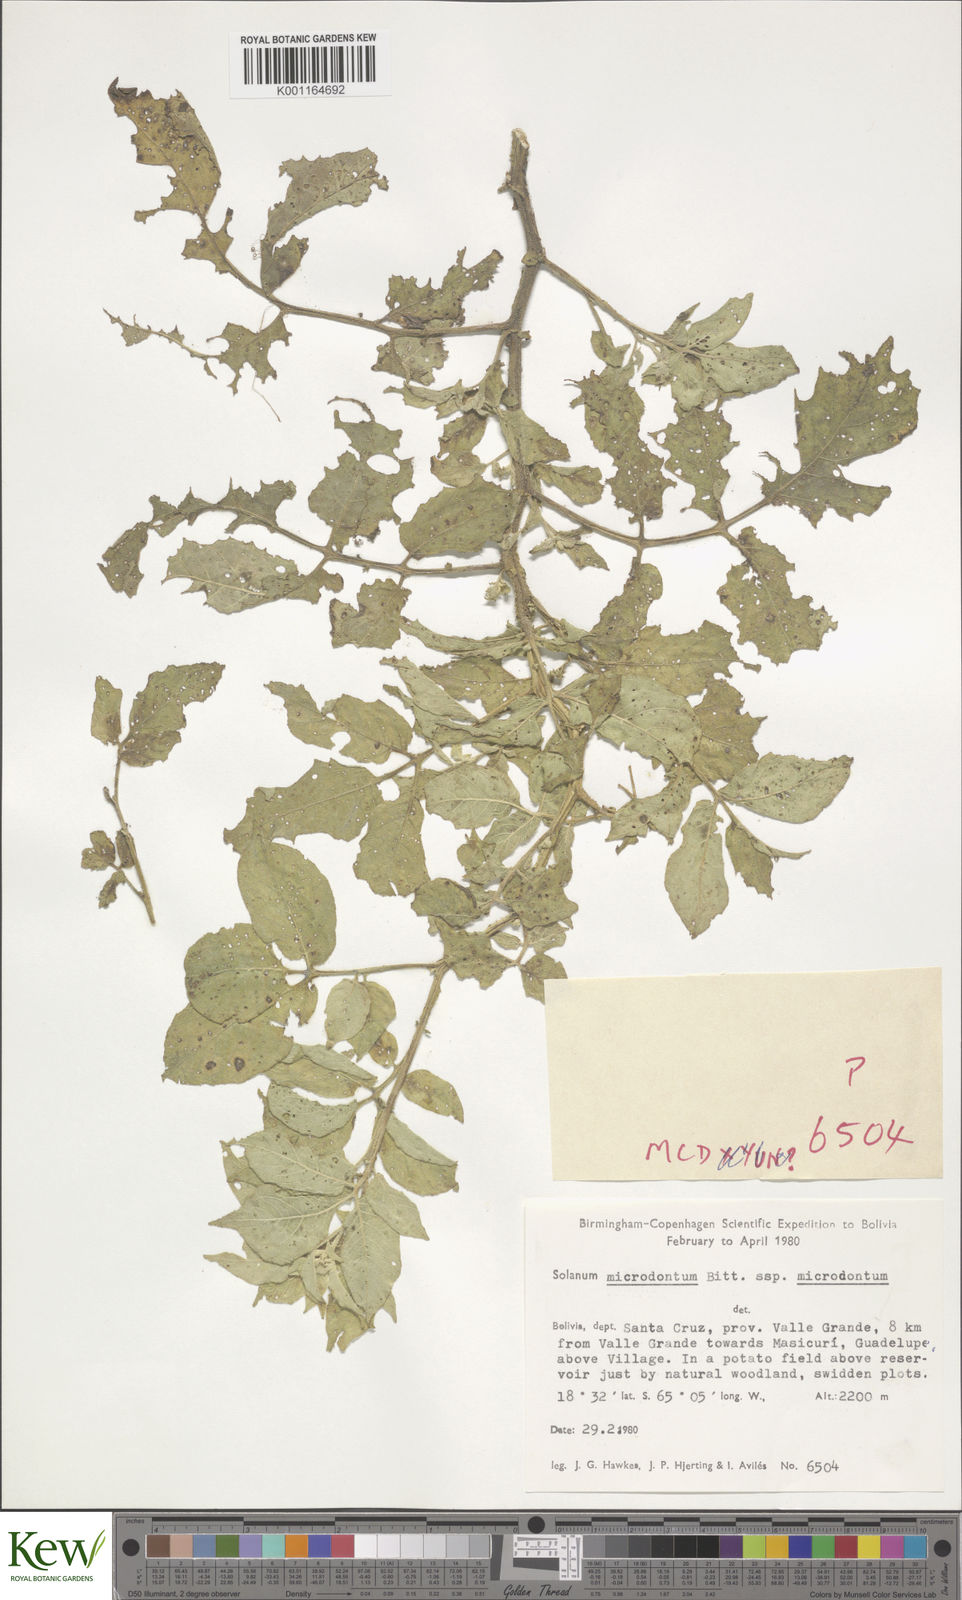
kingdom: Plantae
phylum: Tracheophyta
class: Magnoliopsida
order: Solanales
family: Solanaceae
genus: Solanum
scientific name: Solanum microdontum
